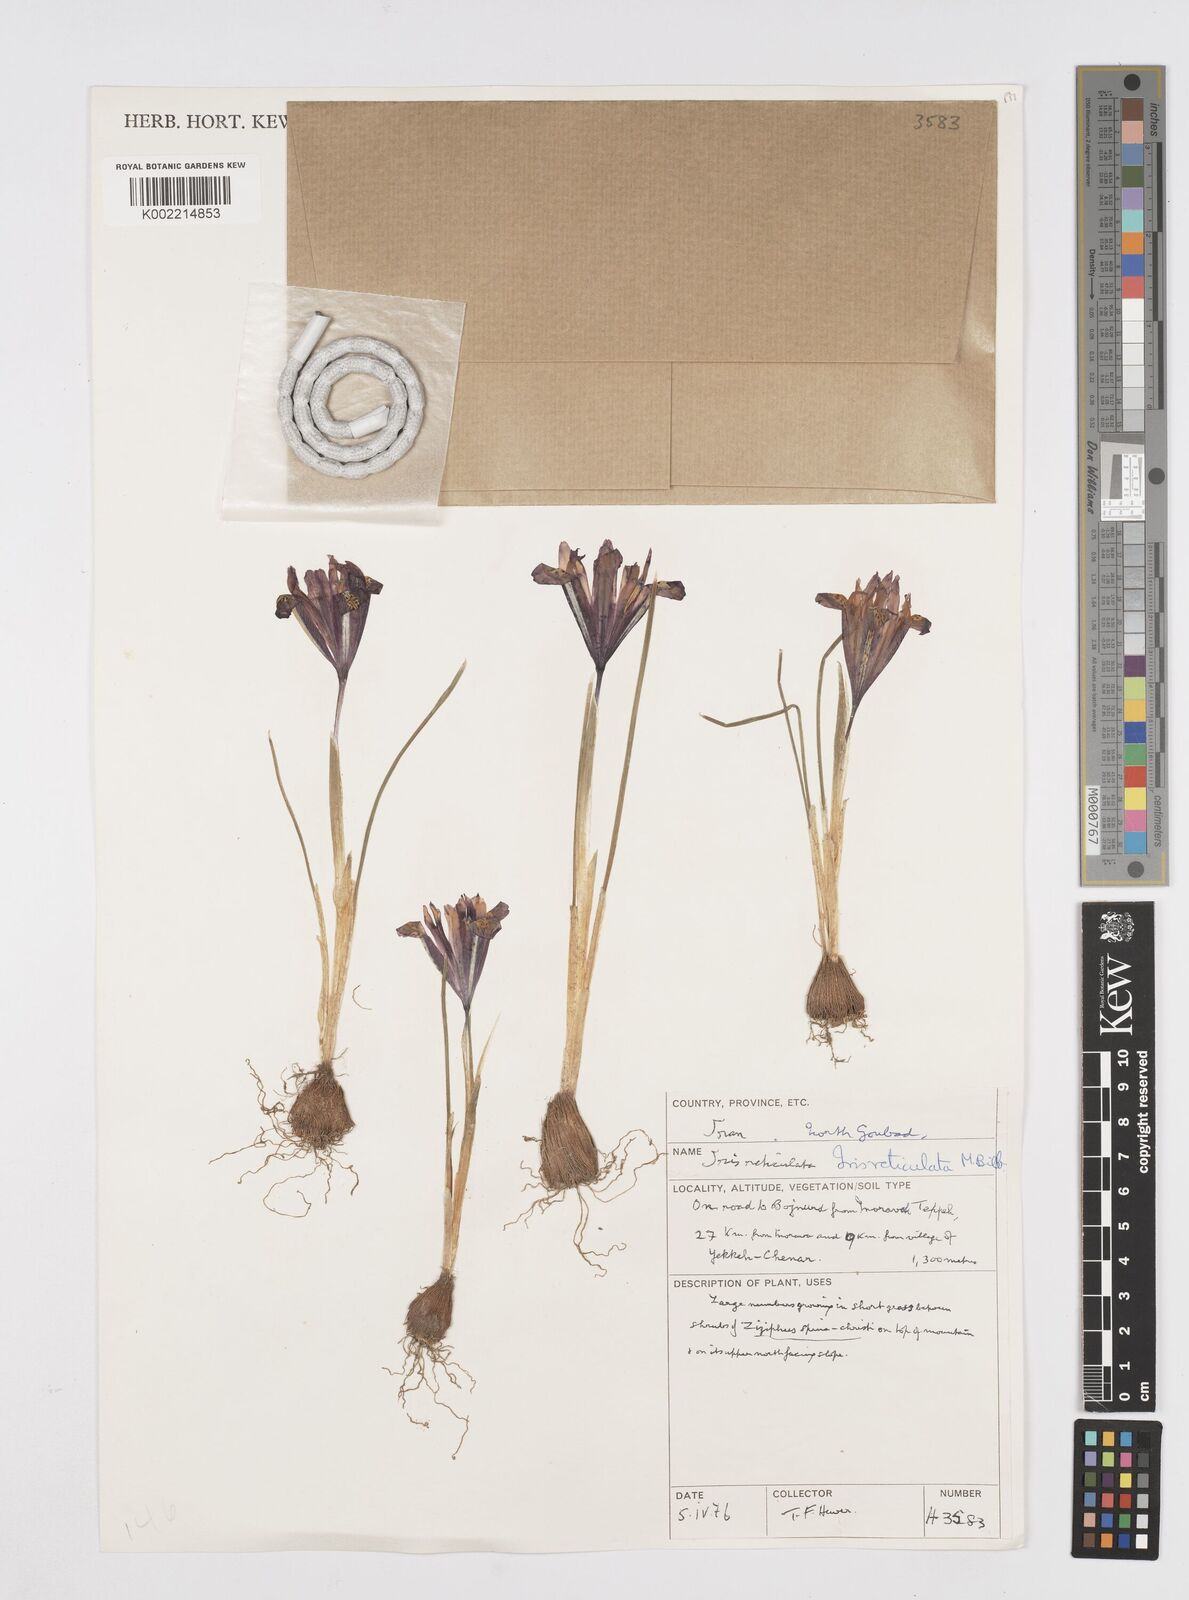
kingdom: Plantae
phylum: Tracheophyta
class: Liliopsida
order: Asparagales
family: Iridaceae
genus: Iris
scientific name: Iris reticulata
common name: Netted iris
